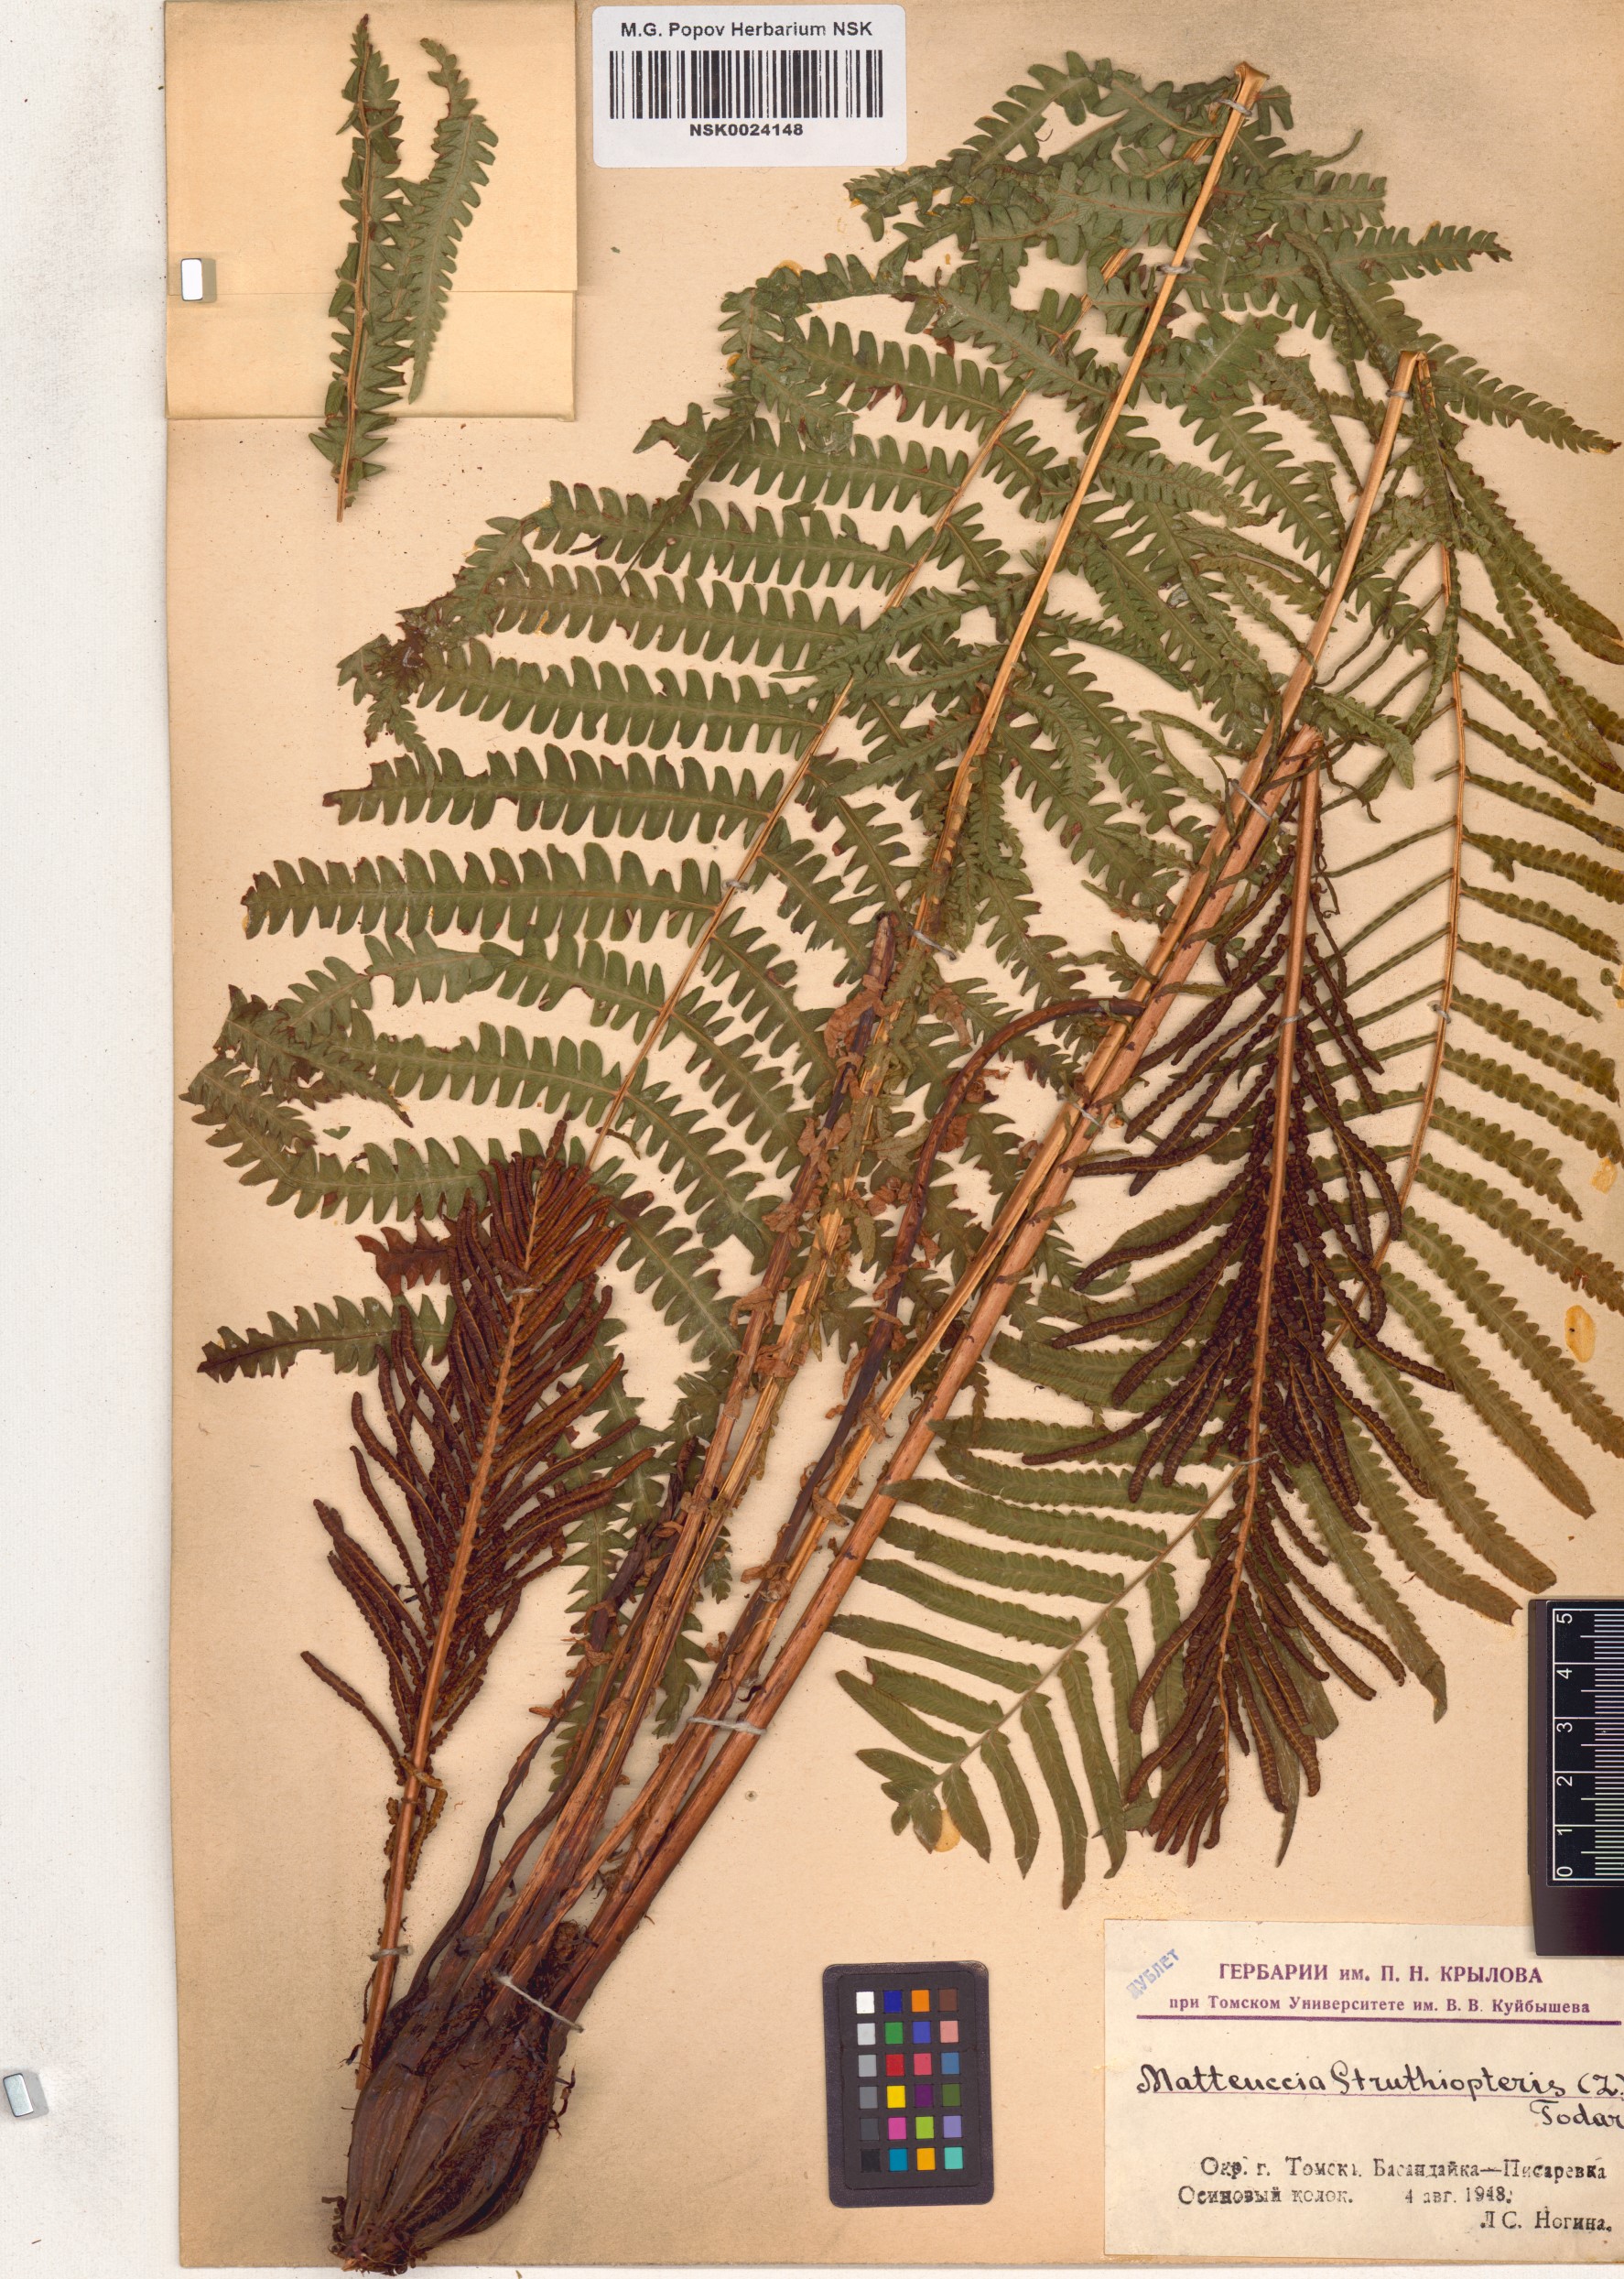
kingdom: Plantae
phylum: Tracheophyta
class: Polypodiopsida
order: Polypodiales
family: Onocleaceae
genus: Matteuccia
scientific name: Matteuccia struthiopteris
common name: Ostrich fern
